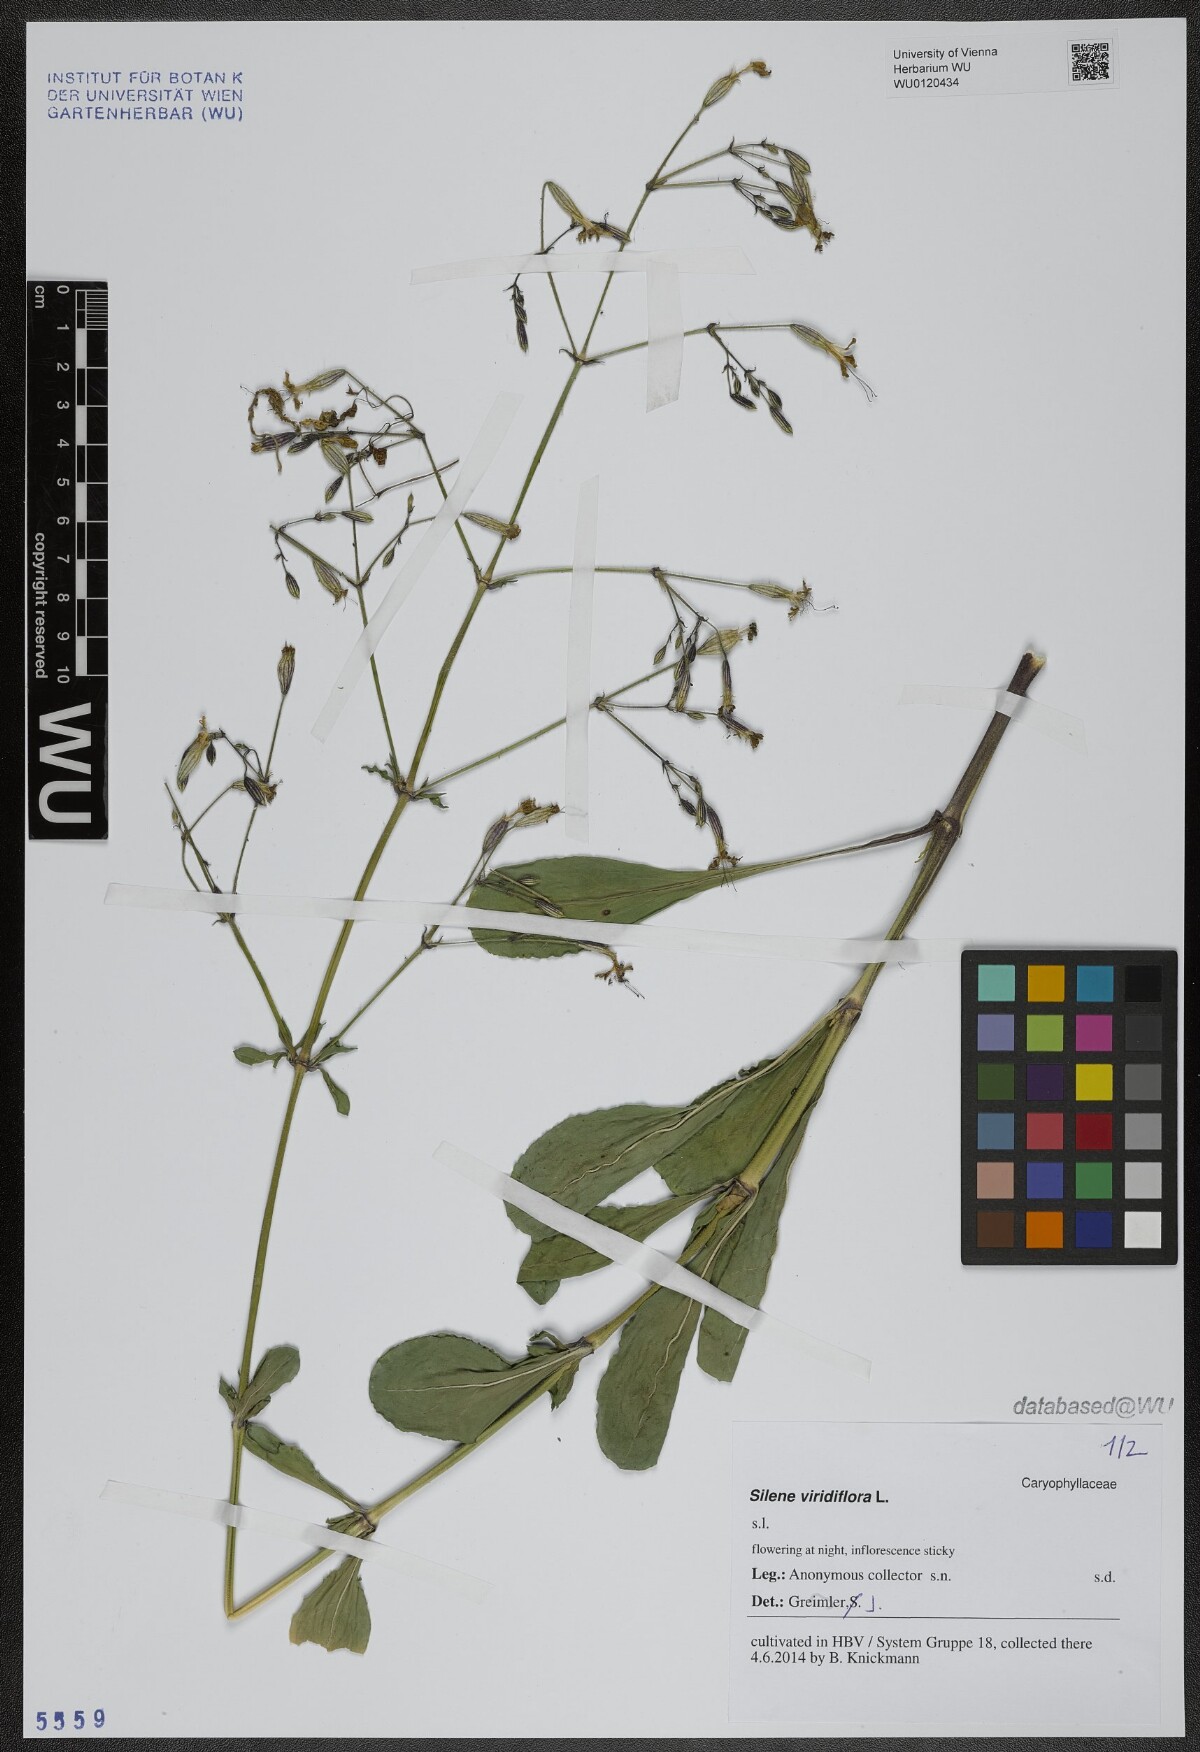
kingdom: Plantae
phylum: Tracheophyta
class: Magnoliopsida
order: Caryophyllales
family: Caryophyllaceae
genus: Silene
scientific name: Silene viridiflora
